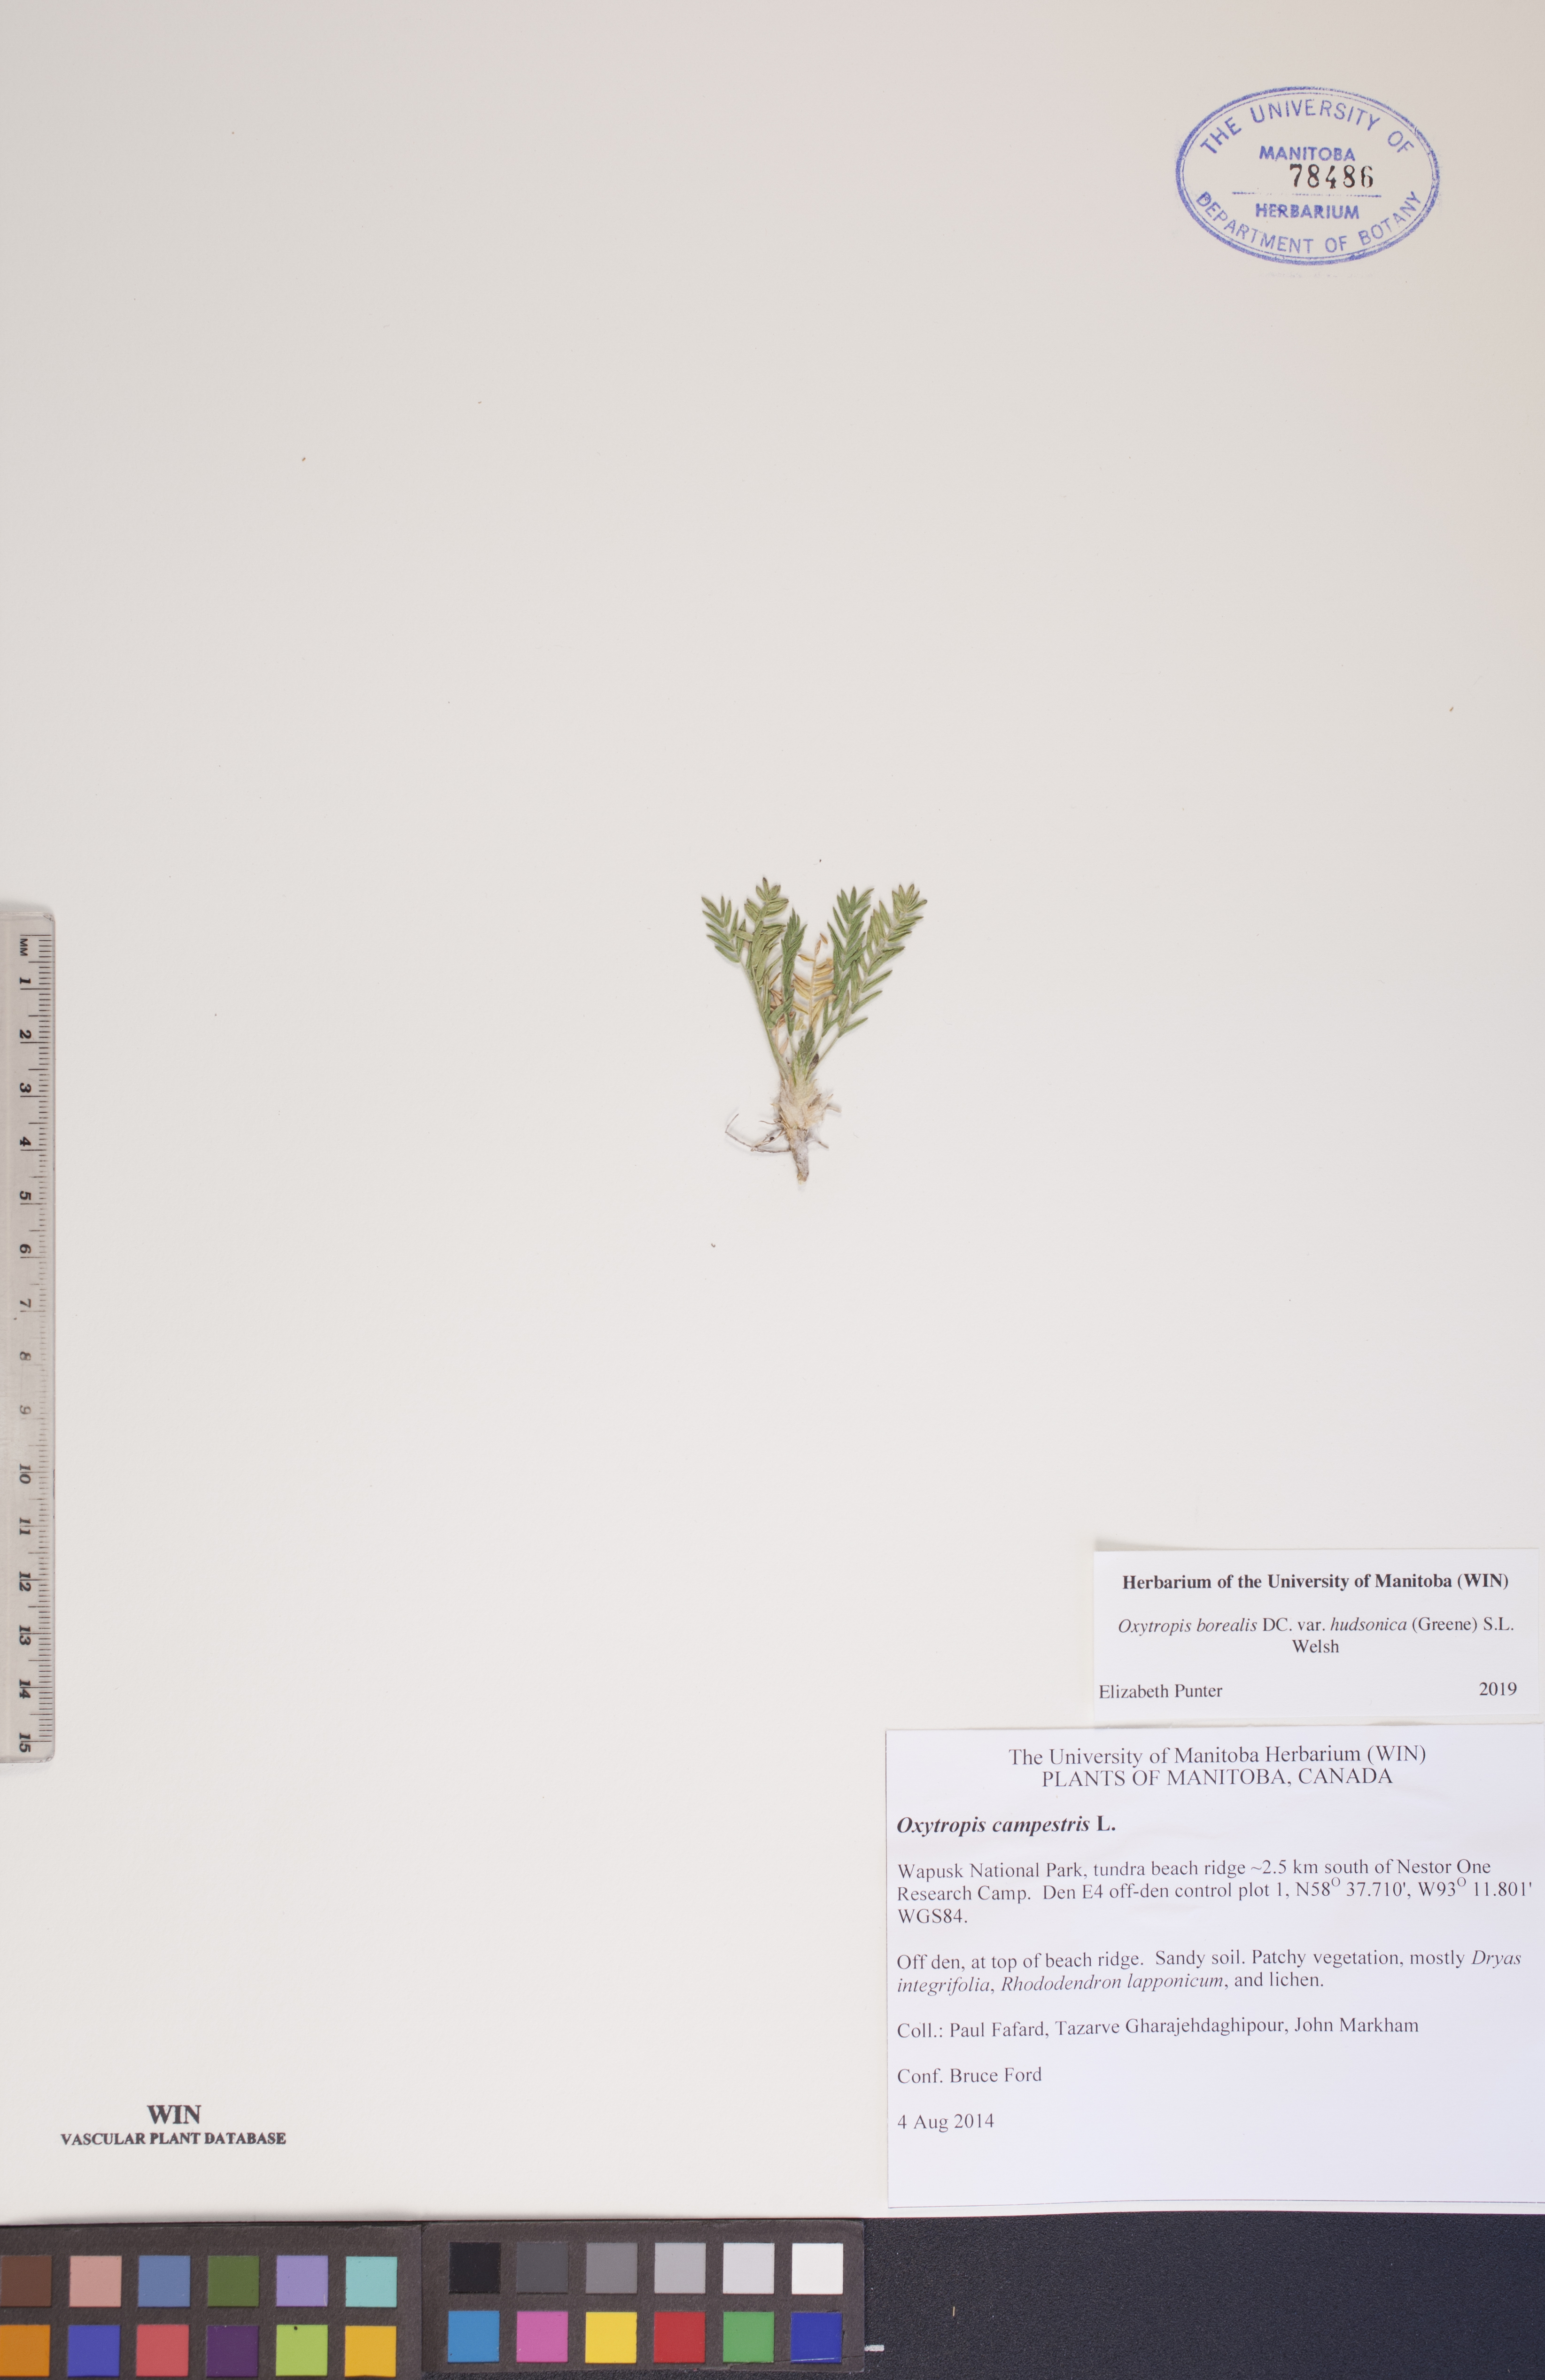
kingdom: Plantae
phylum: Tracheophyta
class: Magnoliopsida
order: Fabales
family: Fabaceae
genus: Oxytropis
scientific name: Oxytropis hudsonica
